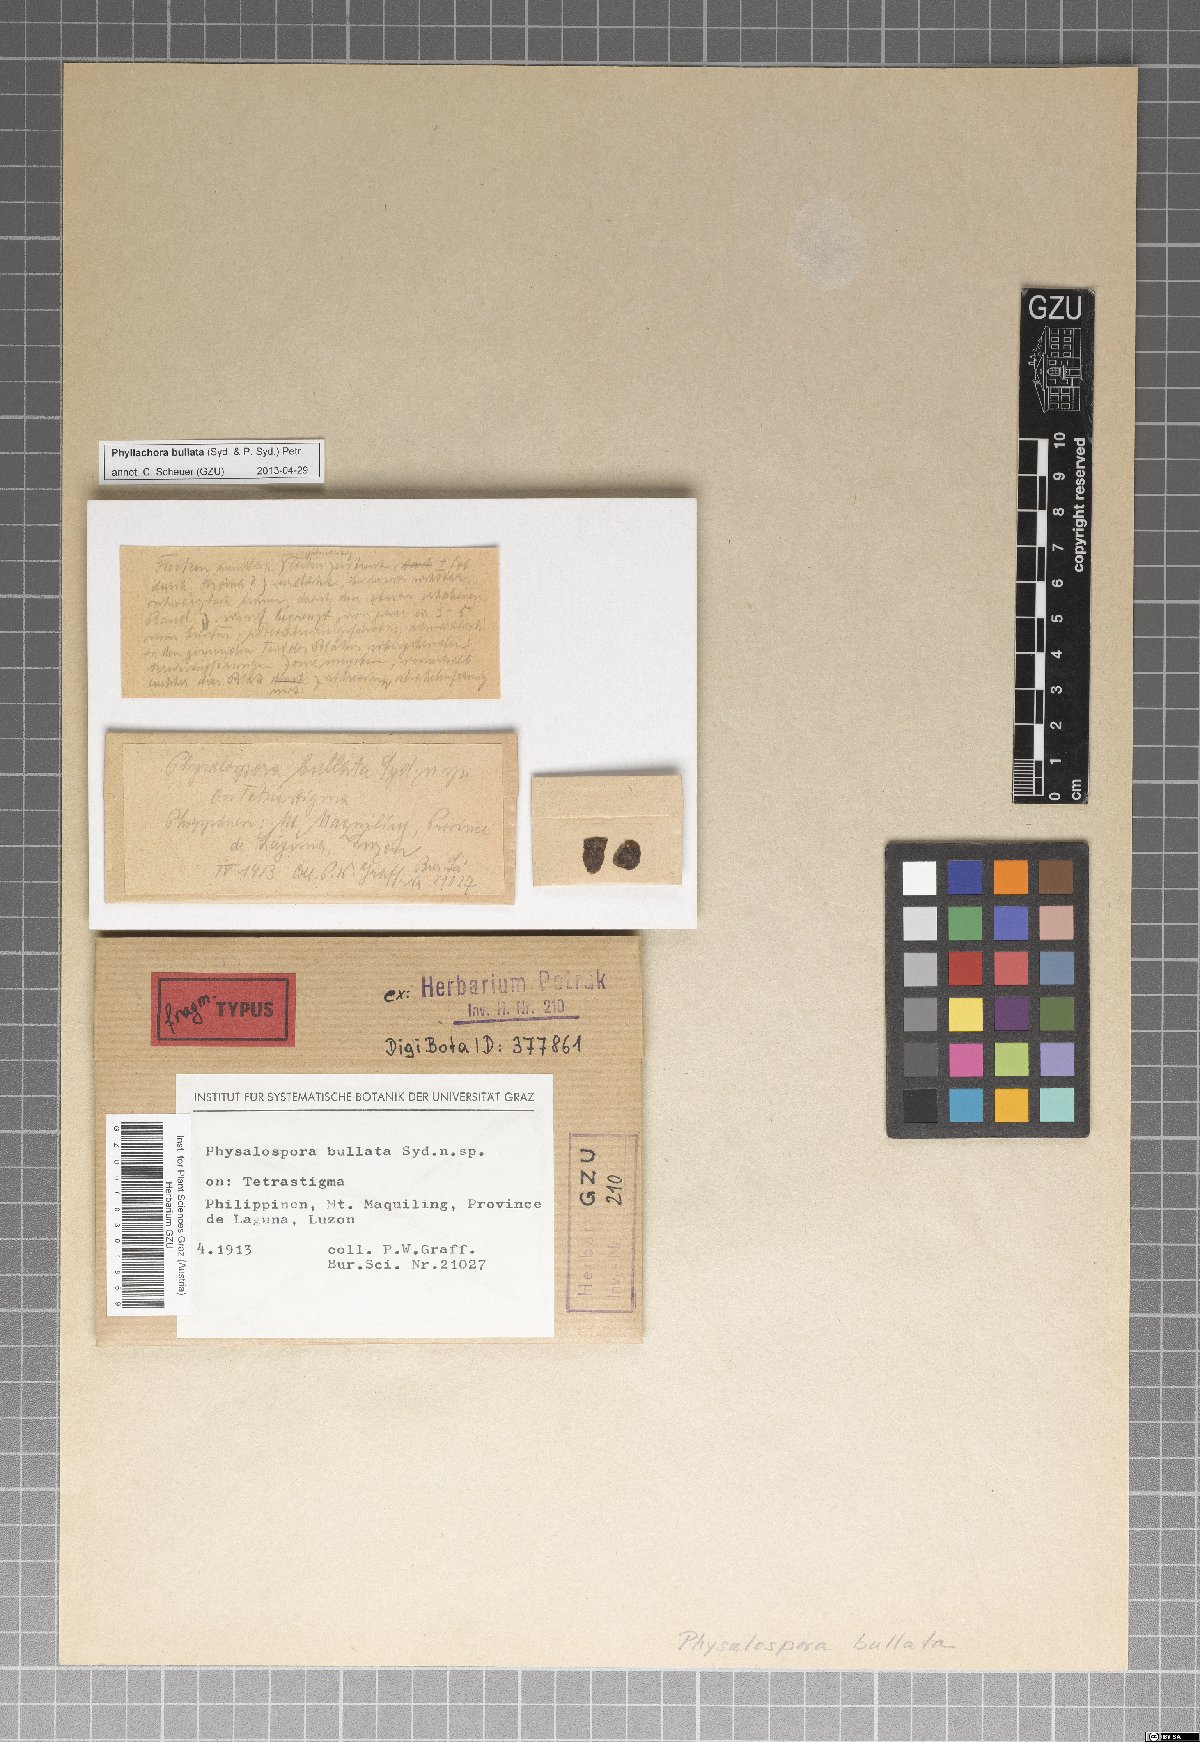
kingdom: Fungi
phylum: Ascomycota
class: Sordariomycetes
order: Phyllachorales
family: Phyllachoraceae
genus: Phyllachora
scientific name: Phyllachora carnea
